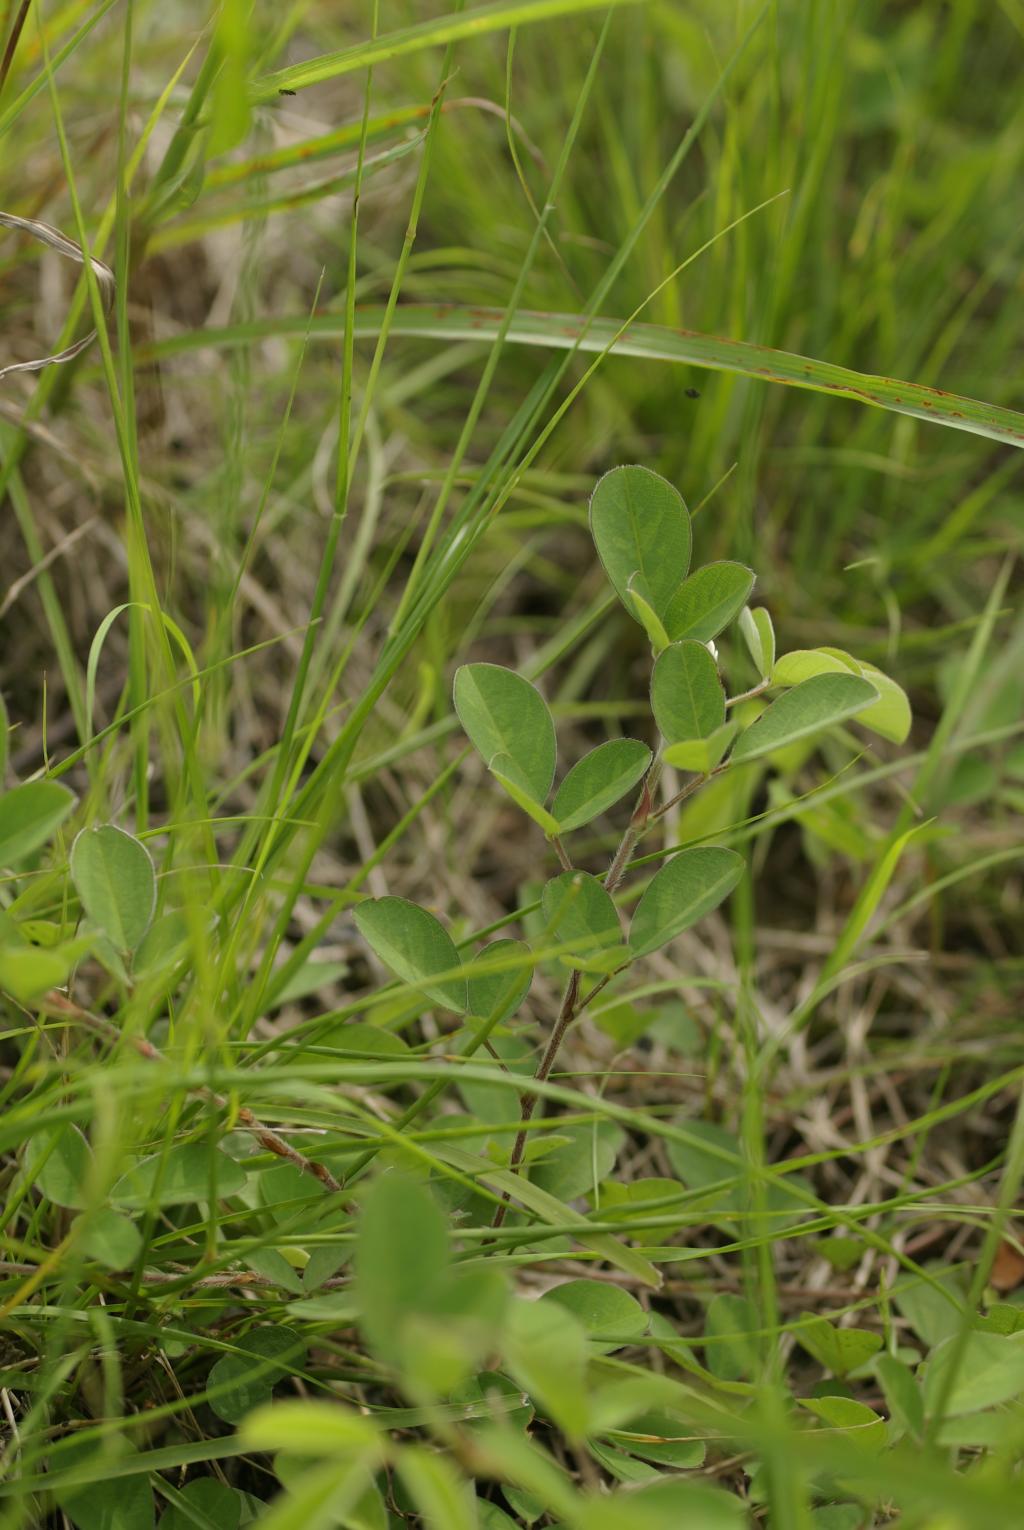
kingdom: Plantae
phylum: Tracheophyta
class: Magnoliopsida
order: Fabales
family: Fabaceae
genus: Grona
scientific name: Grona heterocarpos
